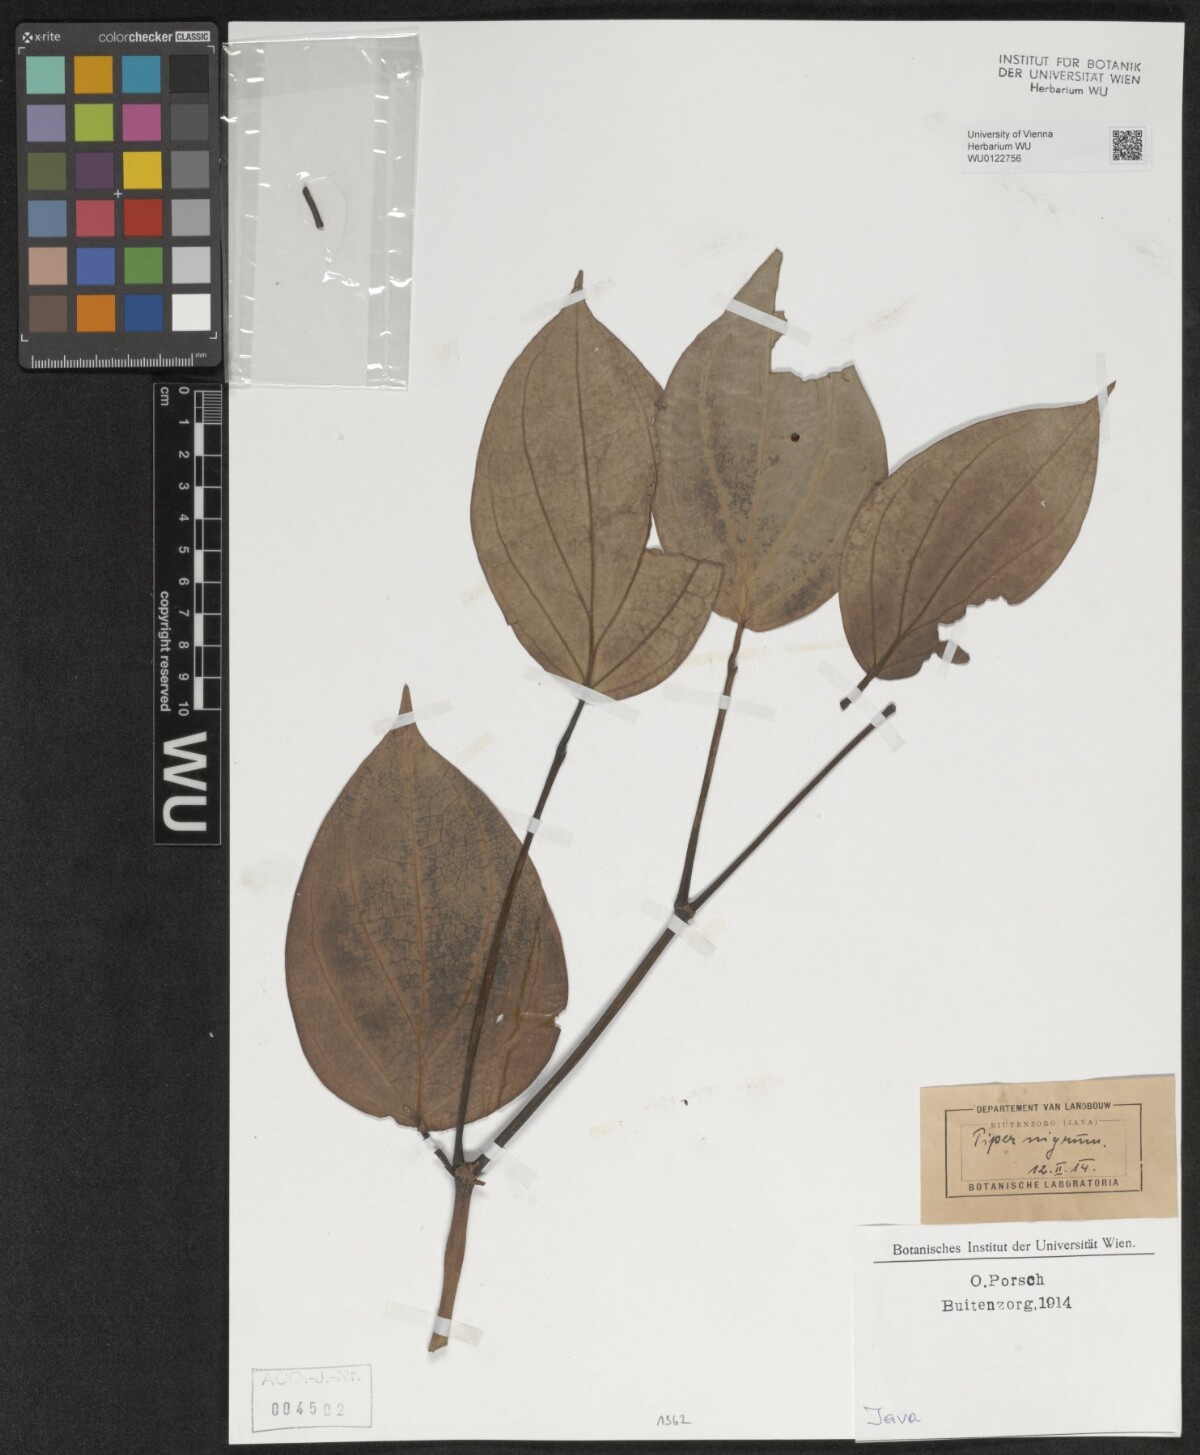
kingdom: Plantae
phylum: Tracheophyta
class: Magnoliopsida
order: Piperales
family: Piperaceae
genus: Piper
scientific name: Piper nigrum
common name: Black pepper
